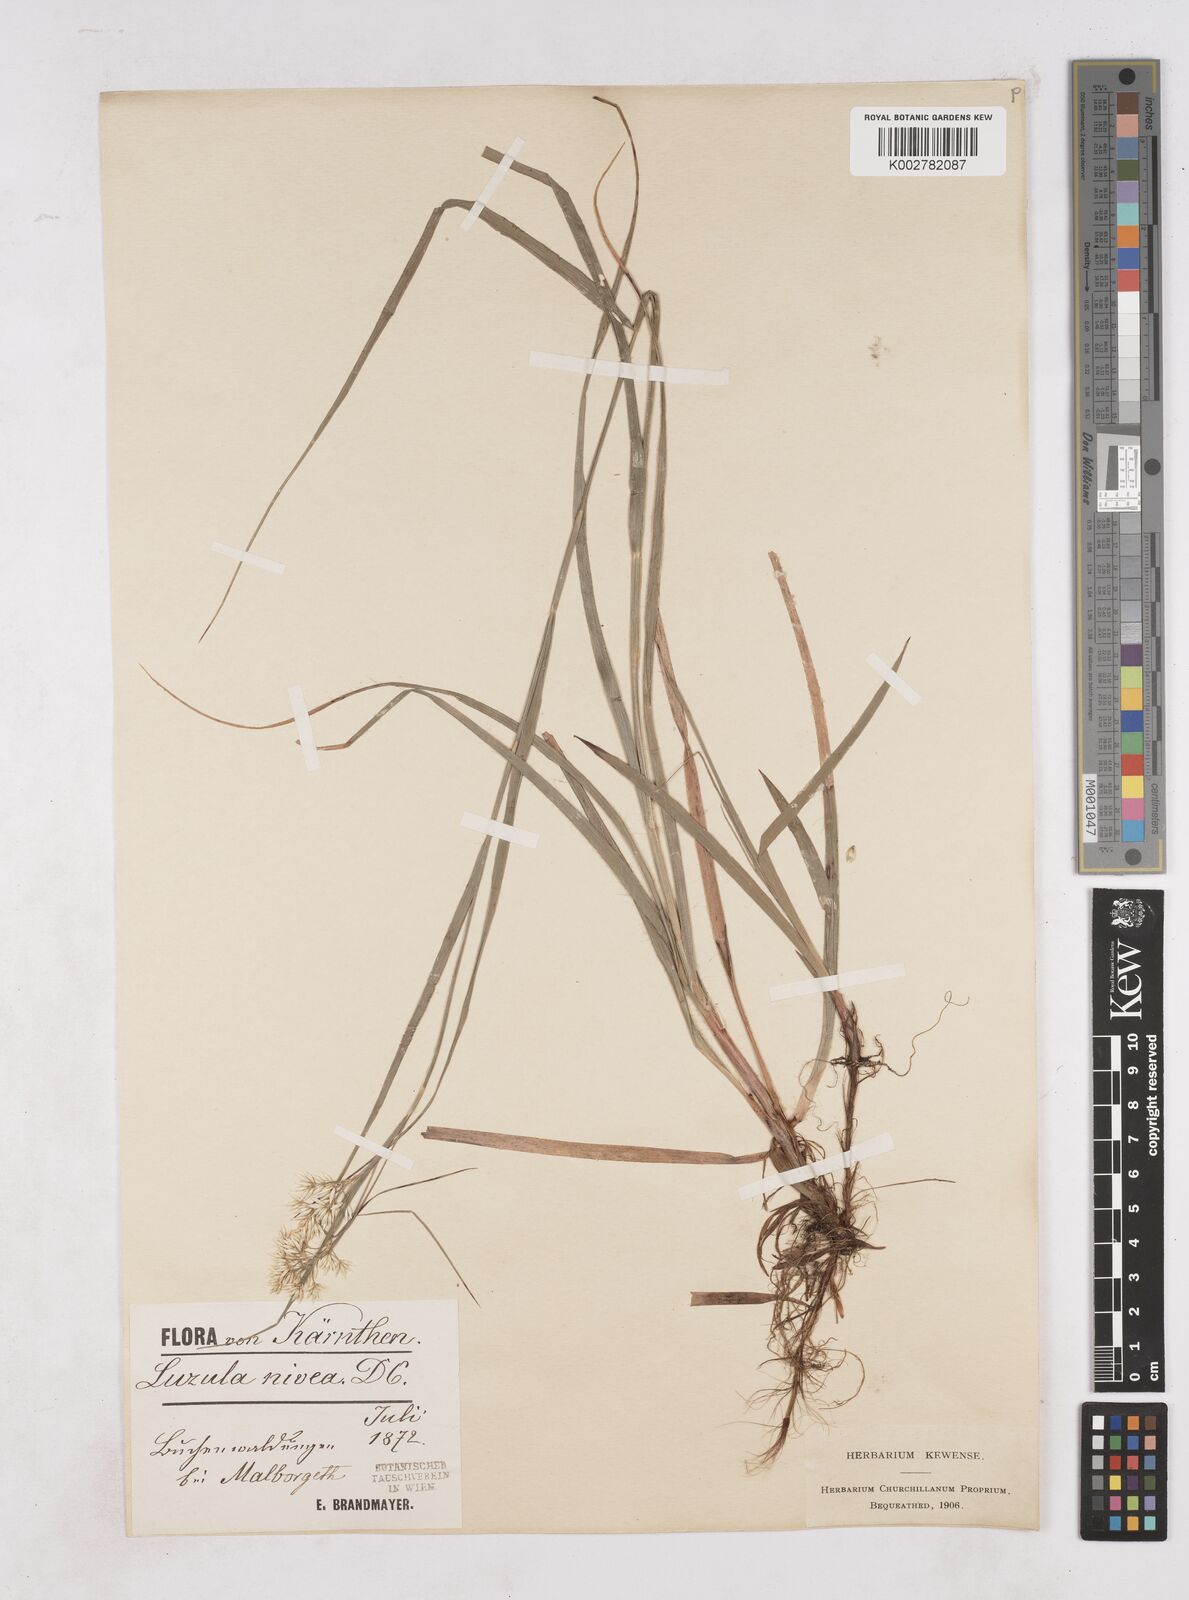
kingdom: Plantae
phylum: Tracheophyta
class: Liliopsida
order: Poales
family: Juncaceae
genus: Luzula
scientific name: Luzula nivea
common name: Snow-white wood-rush
